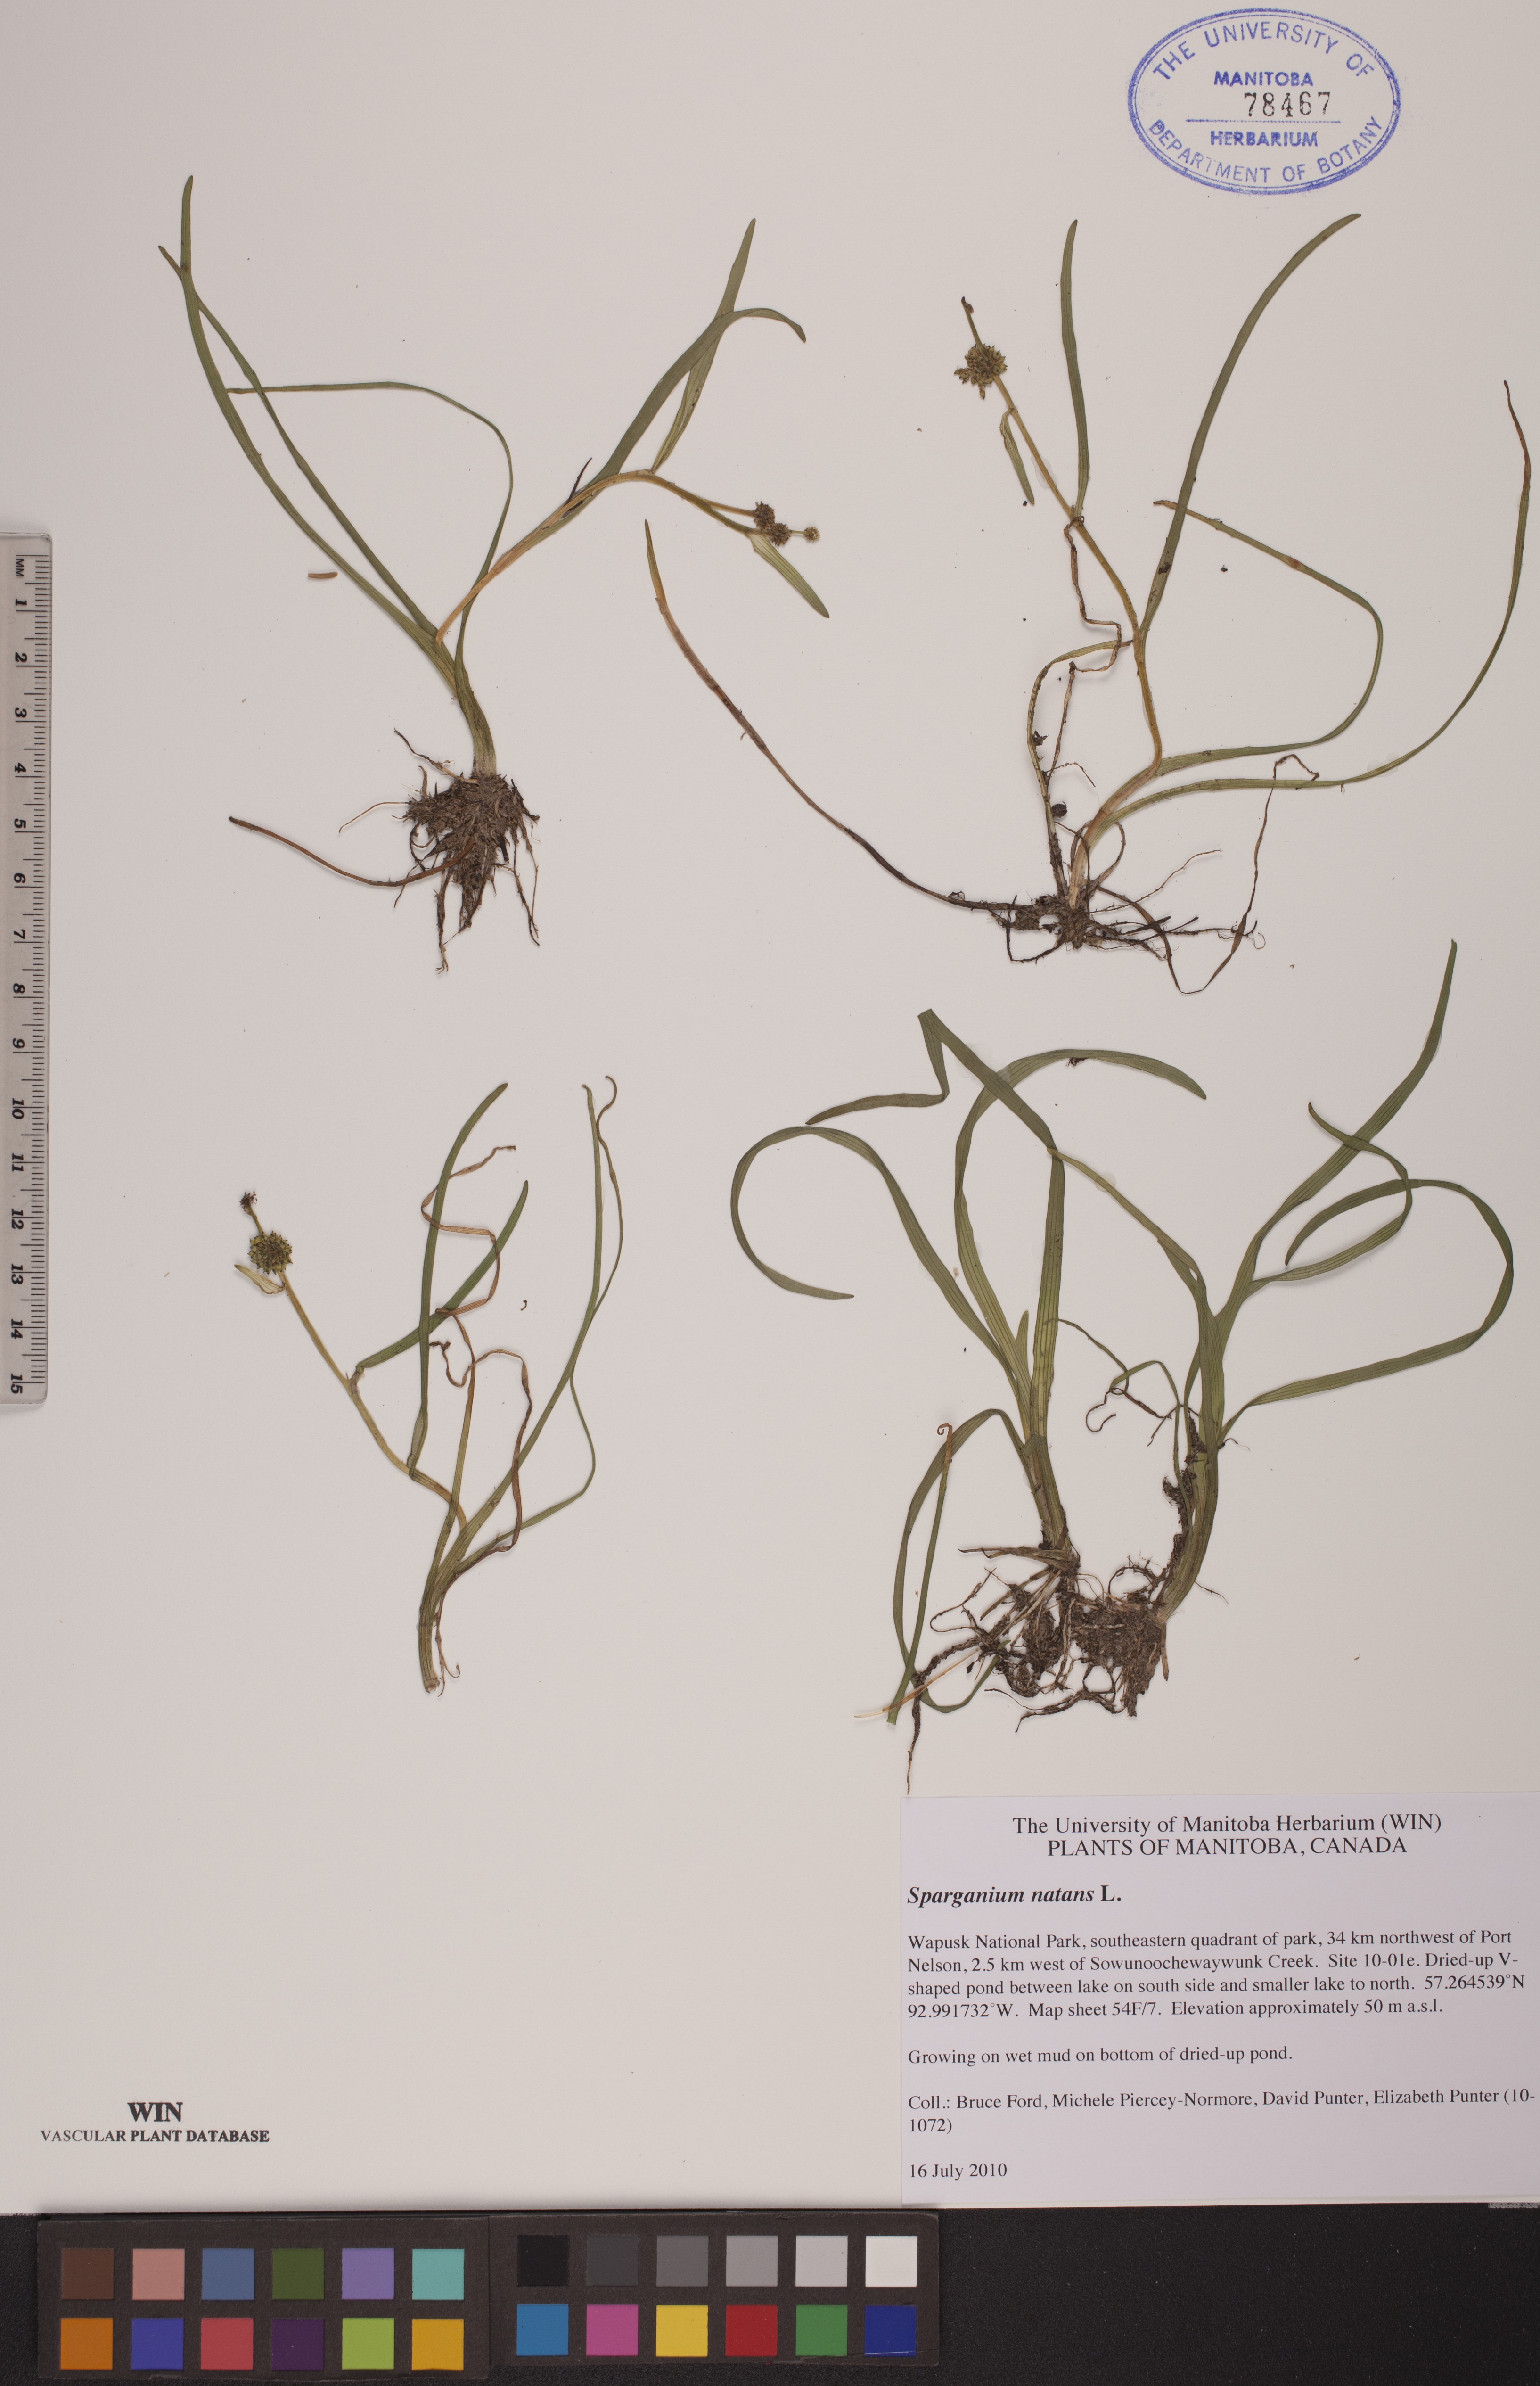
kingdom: Plantae
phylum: Tracheophyta
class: Liliopsida
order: Poales
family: Typhaceae
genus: Sparganium
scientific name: Sparganium natans
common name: Least bur-reed
